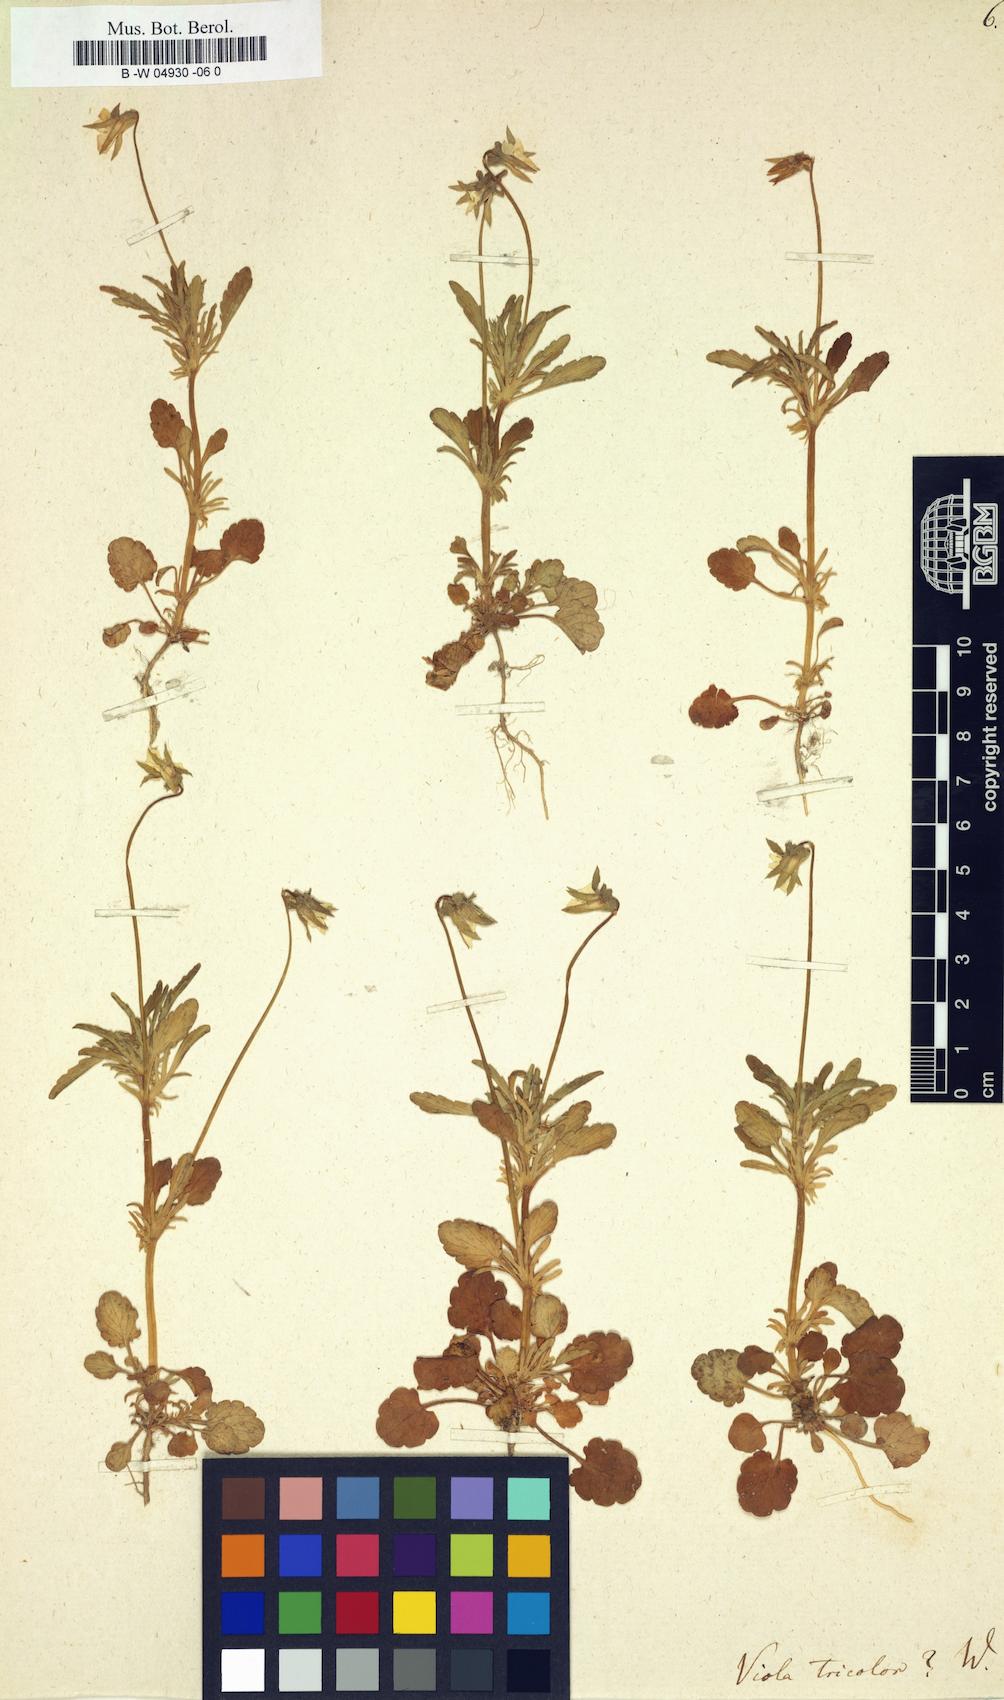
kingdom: Plantae
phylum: Tracheophyta
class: Magnoliopsida
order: Malpighiales
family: Violaceae
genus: Viola
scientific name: Viola tricolor
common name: Pansy
